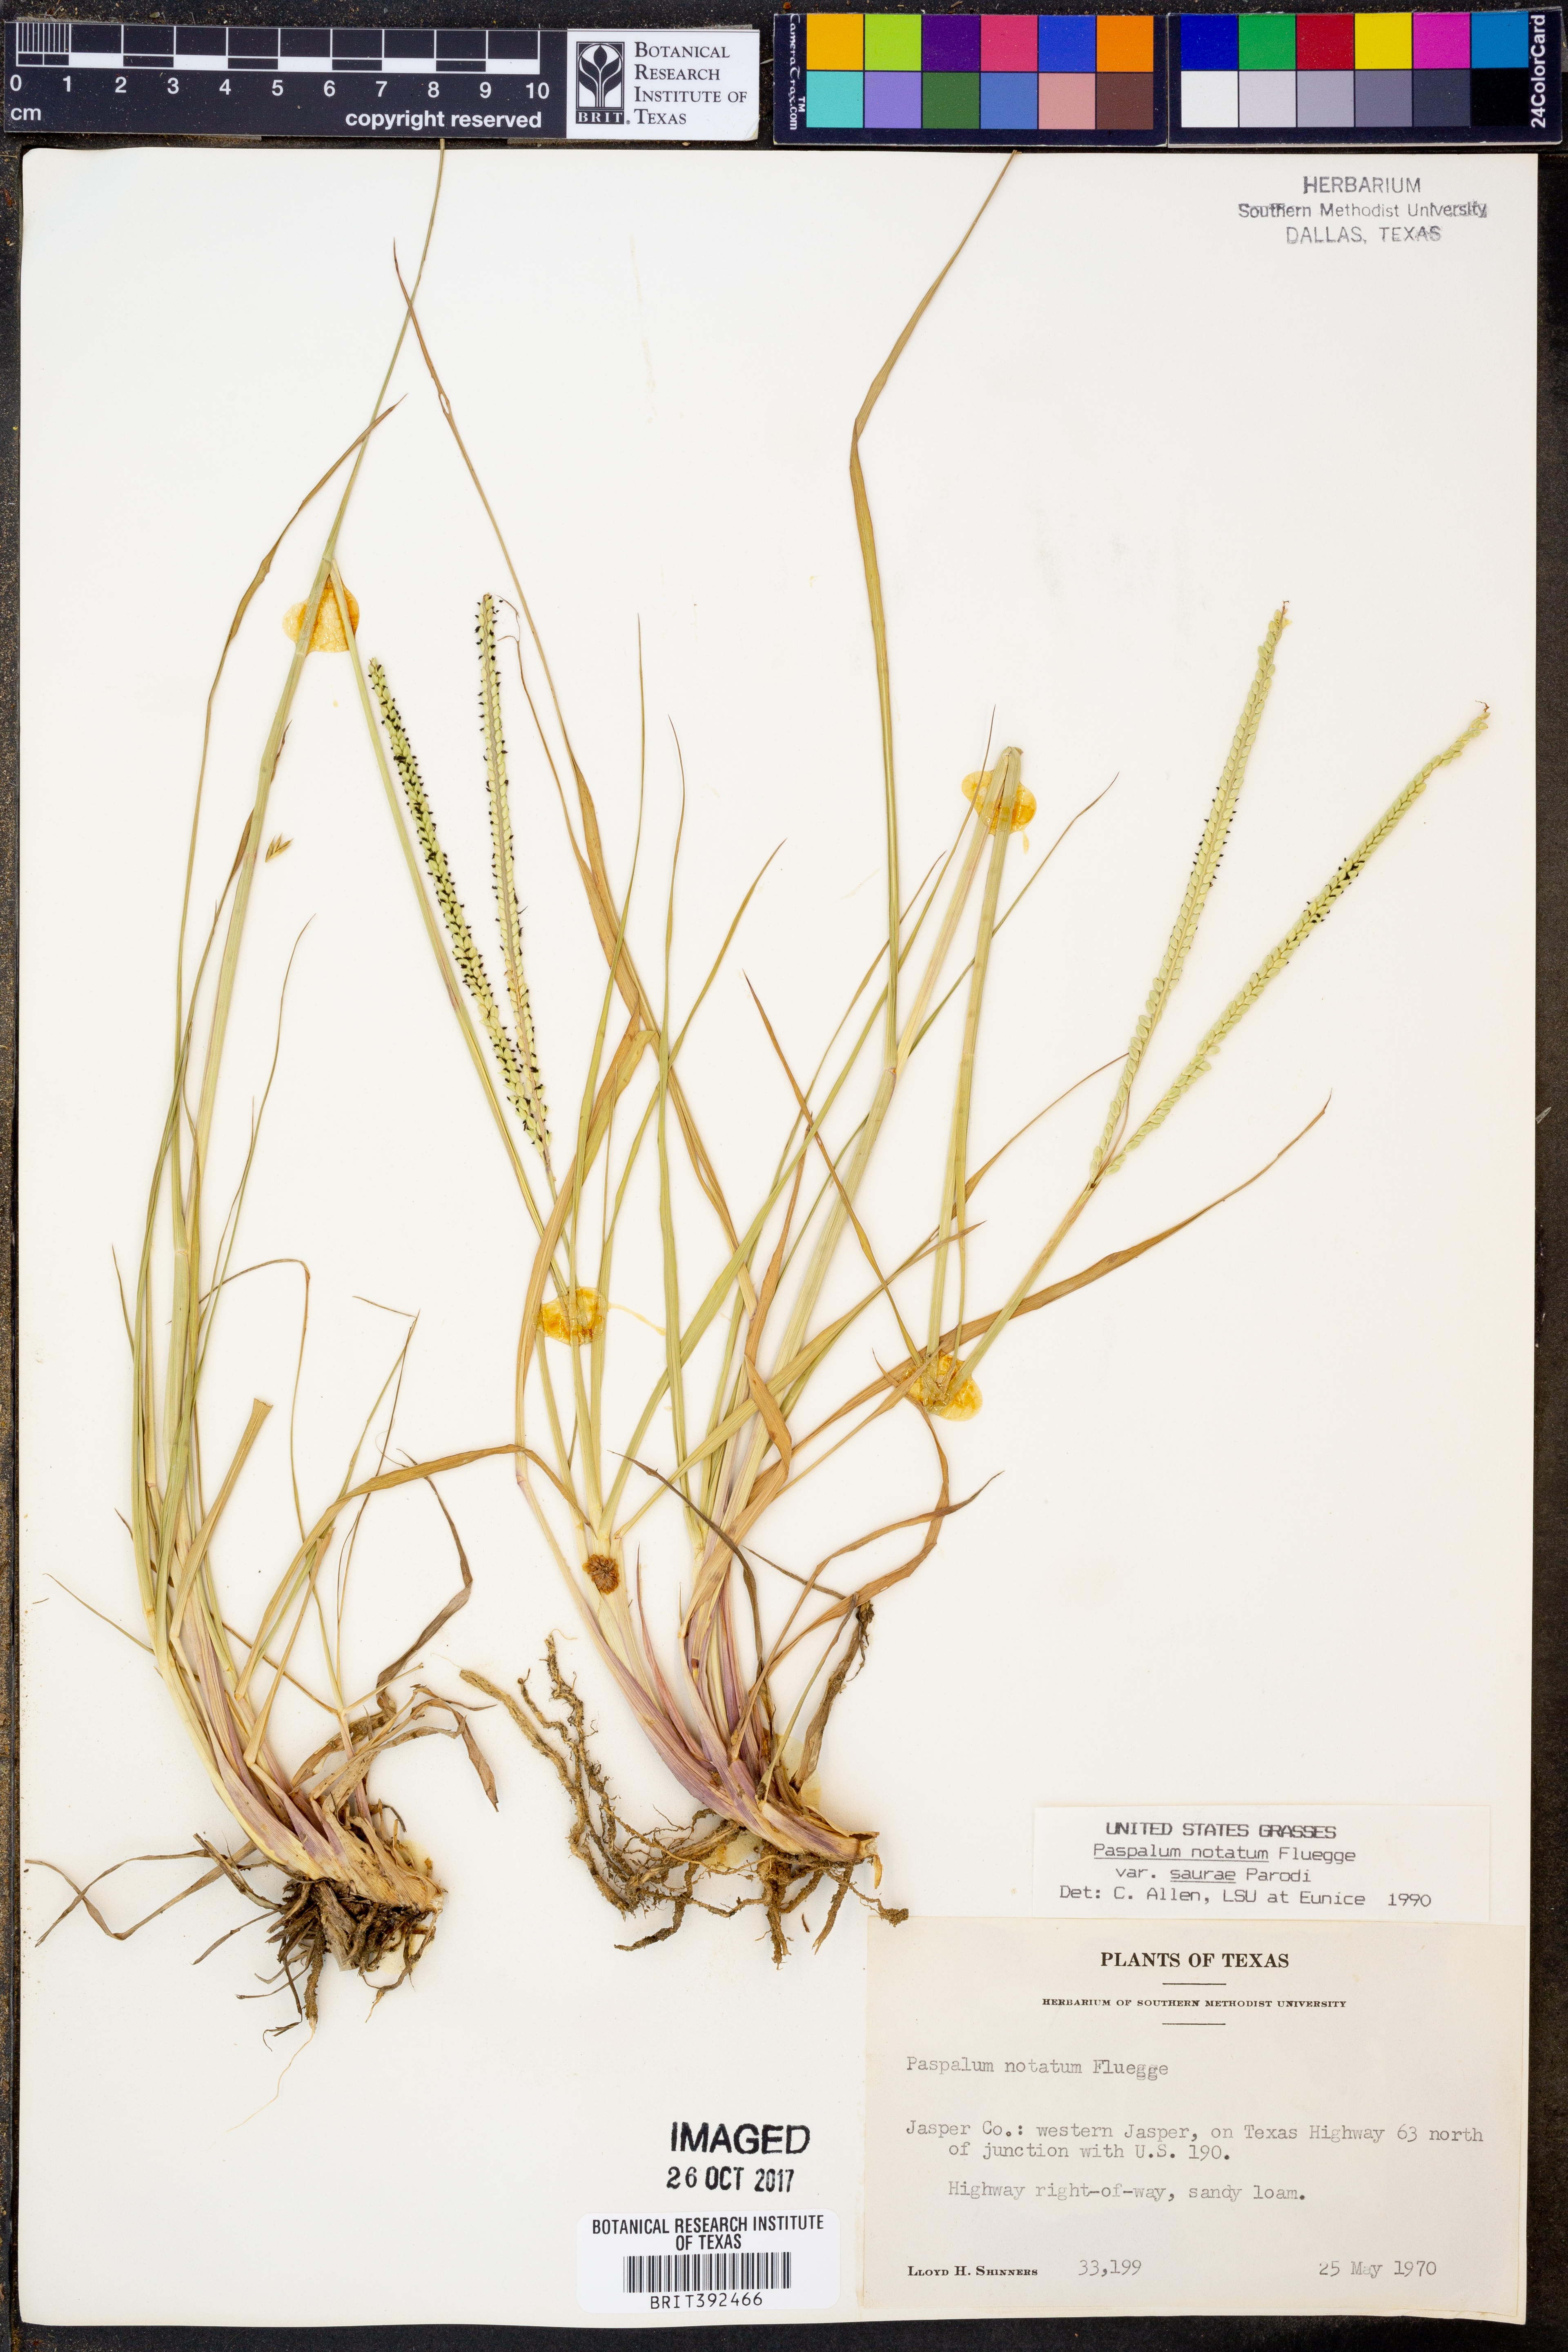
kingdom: Plantae
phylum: Tracheophyta
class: Liliopsida
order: Poales
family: Poaceae
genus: Paspalum
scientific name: Paspalum saurae
